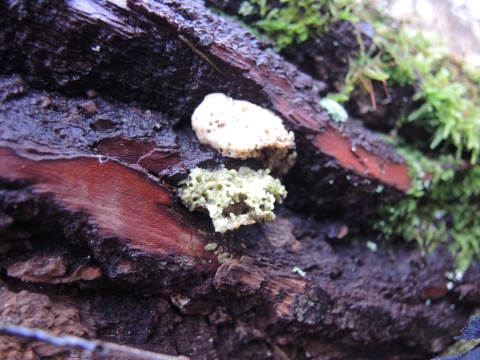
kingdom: Fungi
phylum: Basidiomycota
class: Agaricomycetes
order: Polyporales
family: Polyporaceae
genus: Trametes
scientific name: Trametes suaveolens
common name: vellugtende læderporesvamp
